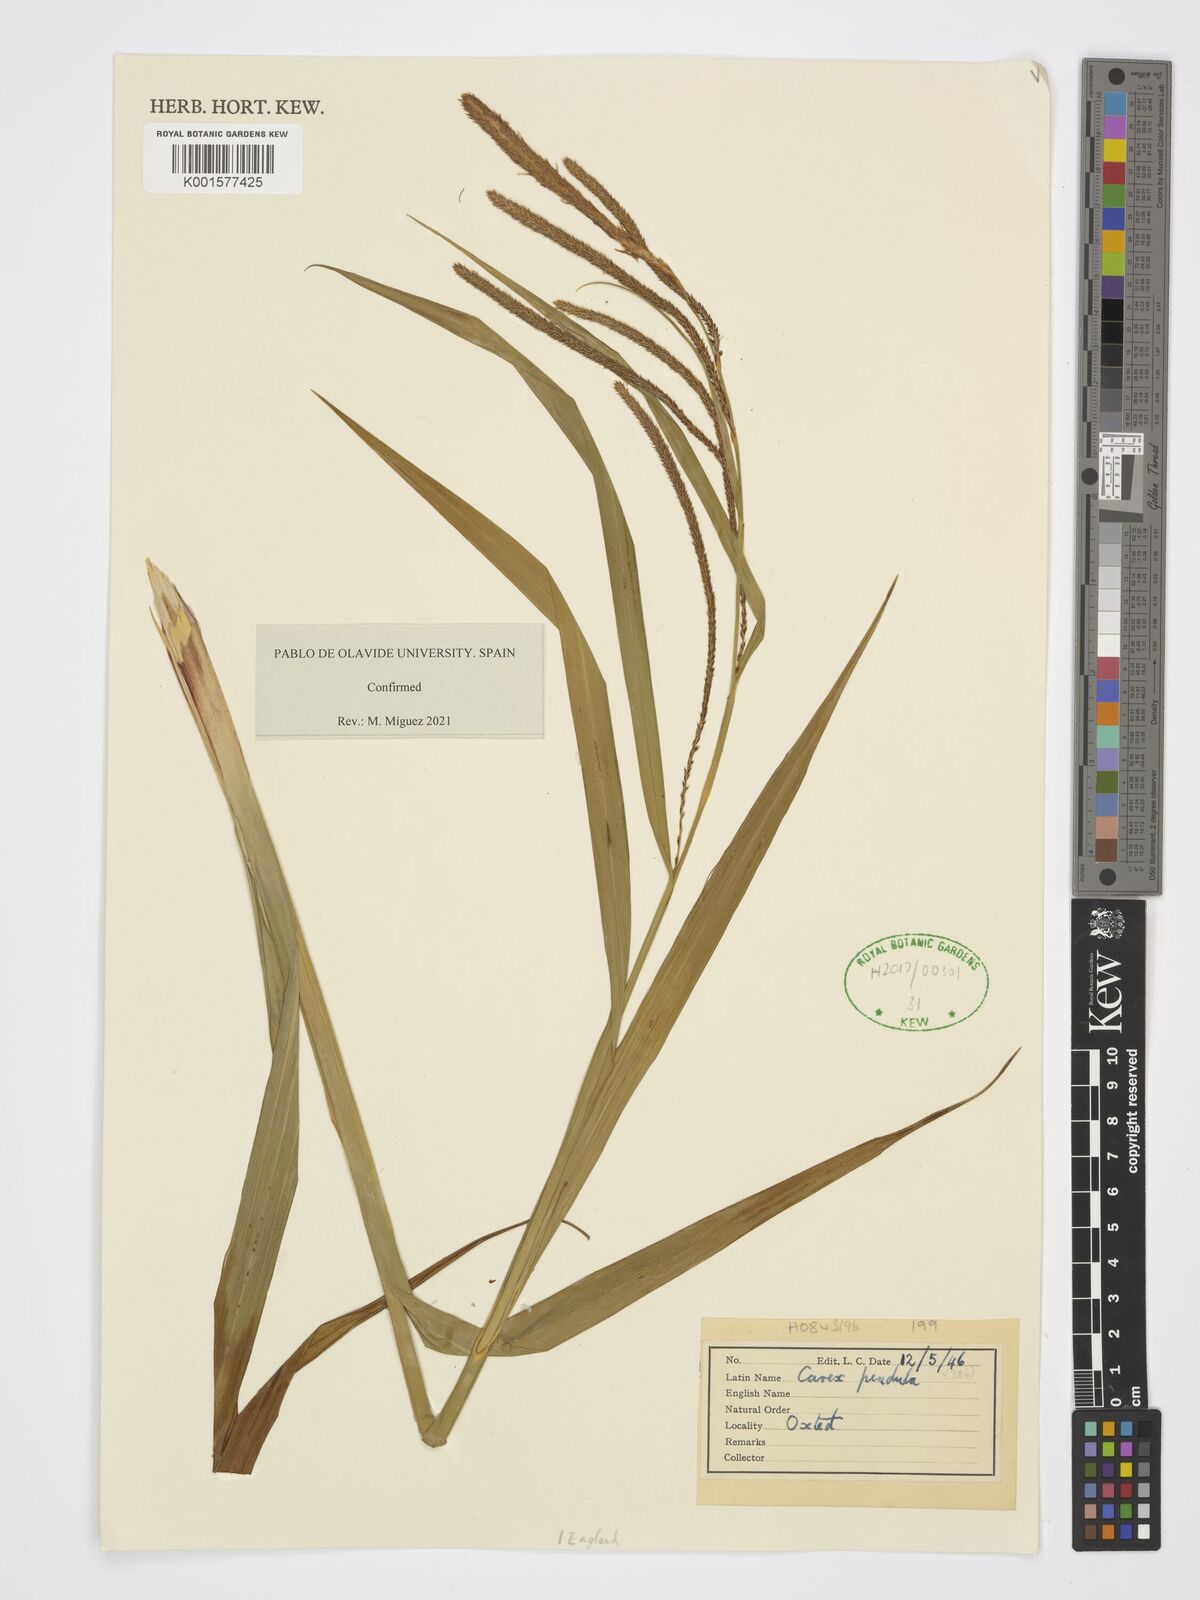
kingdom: Plantae
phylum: Tracheophyta
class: Liliopsida
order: Poales
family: Cyperaceae
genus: Carex
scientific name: Carex pendula
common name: Pendulous sedge
